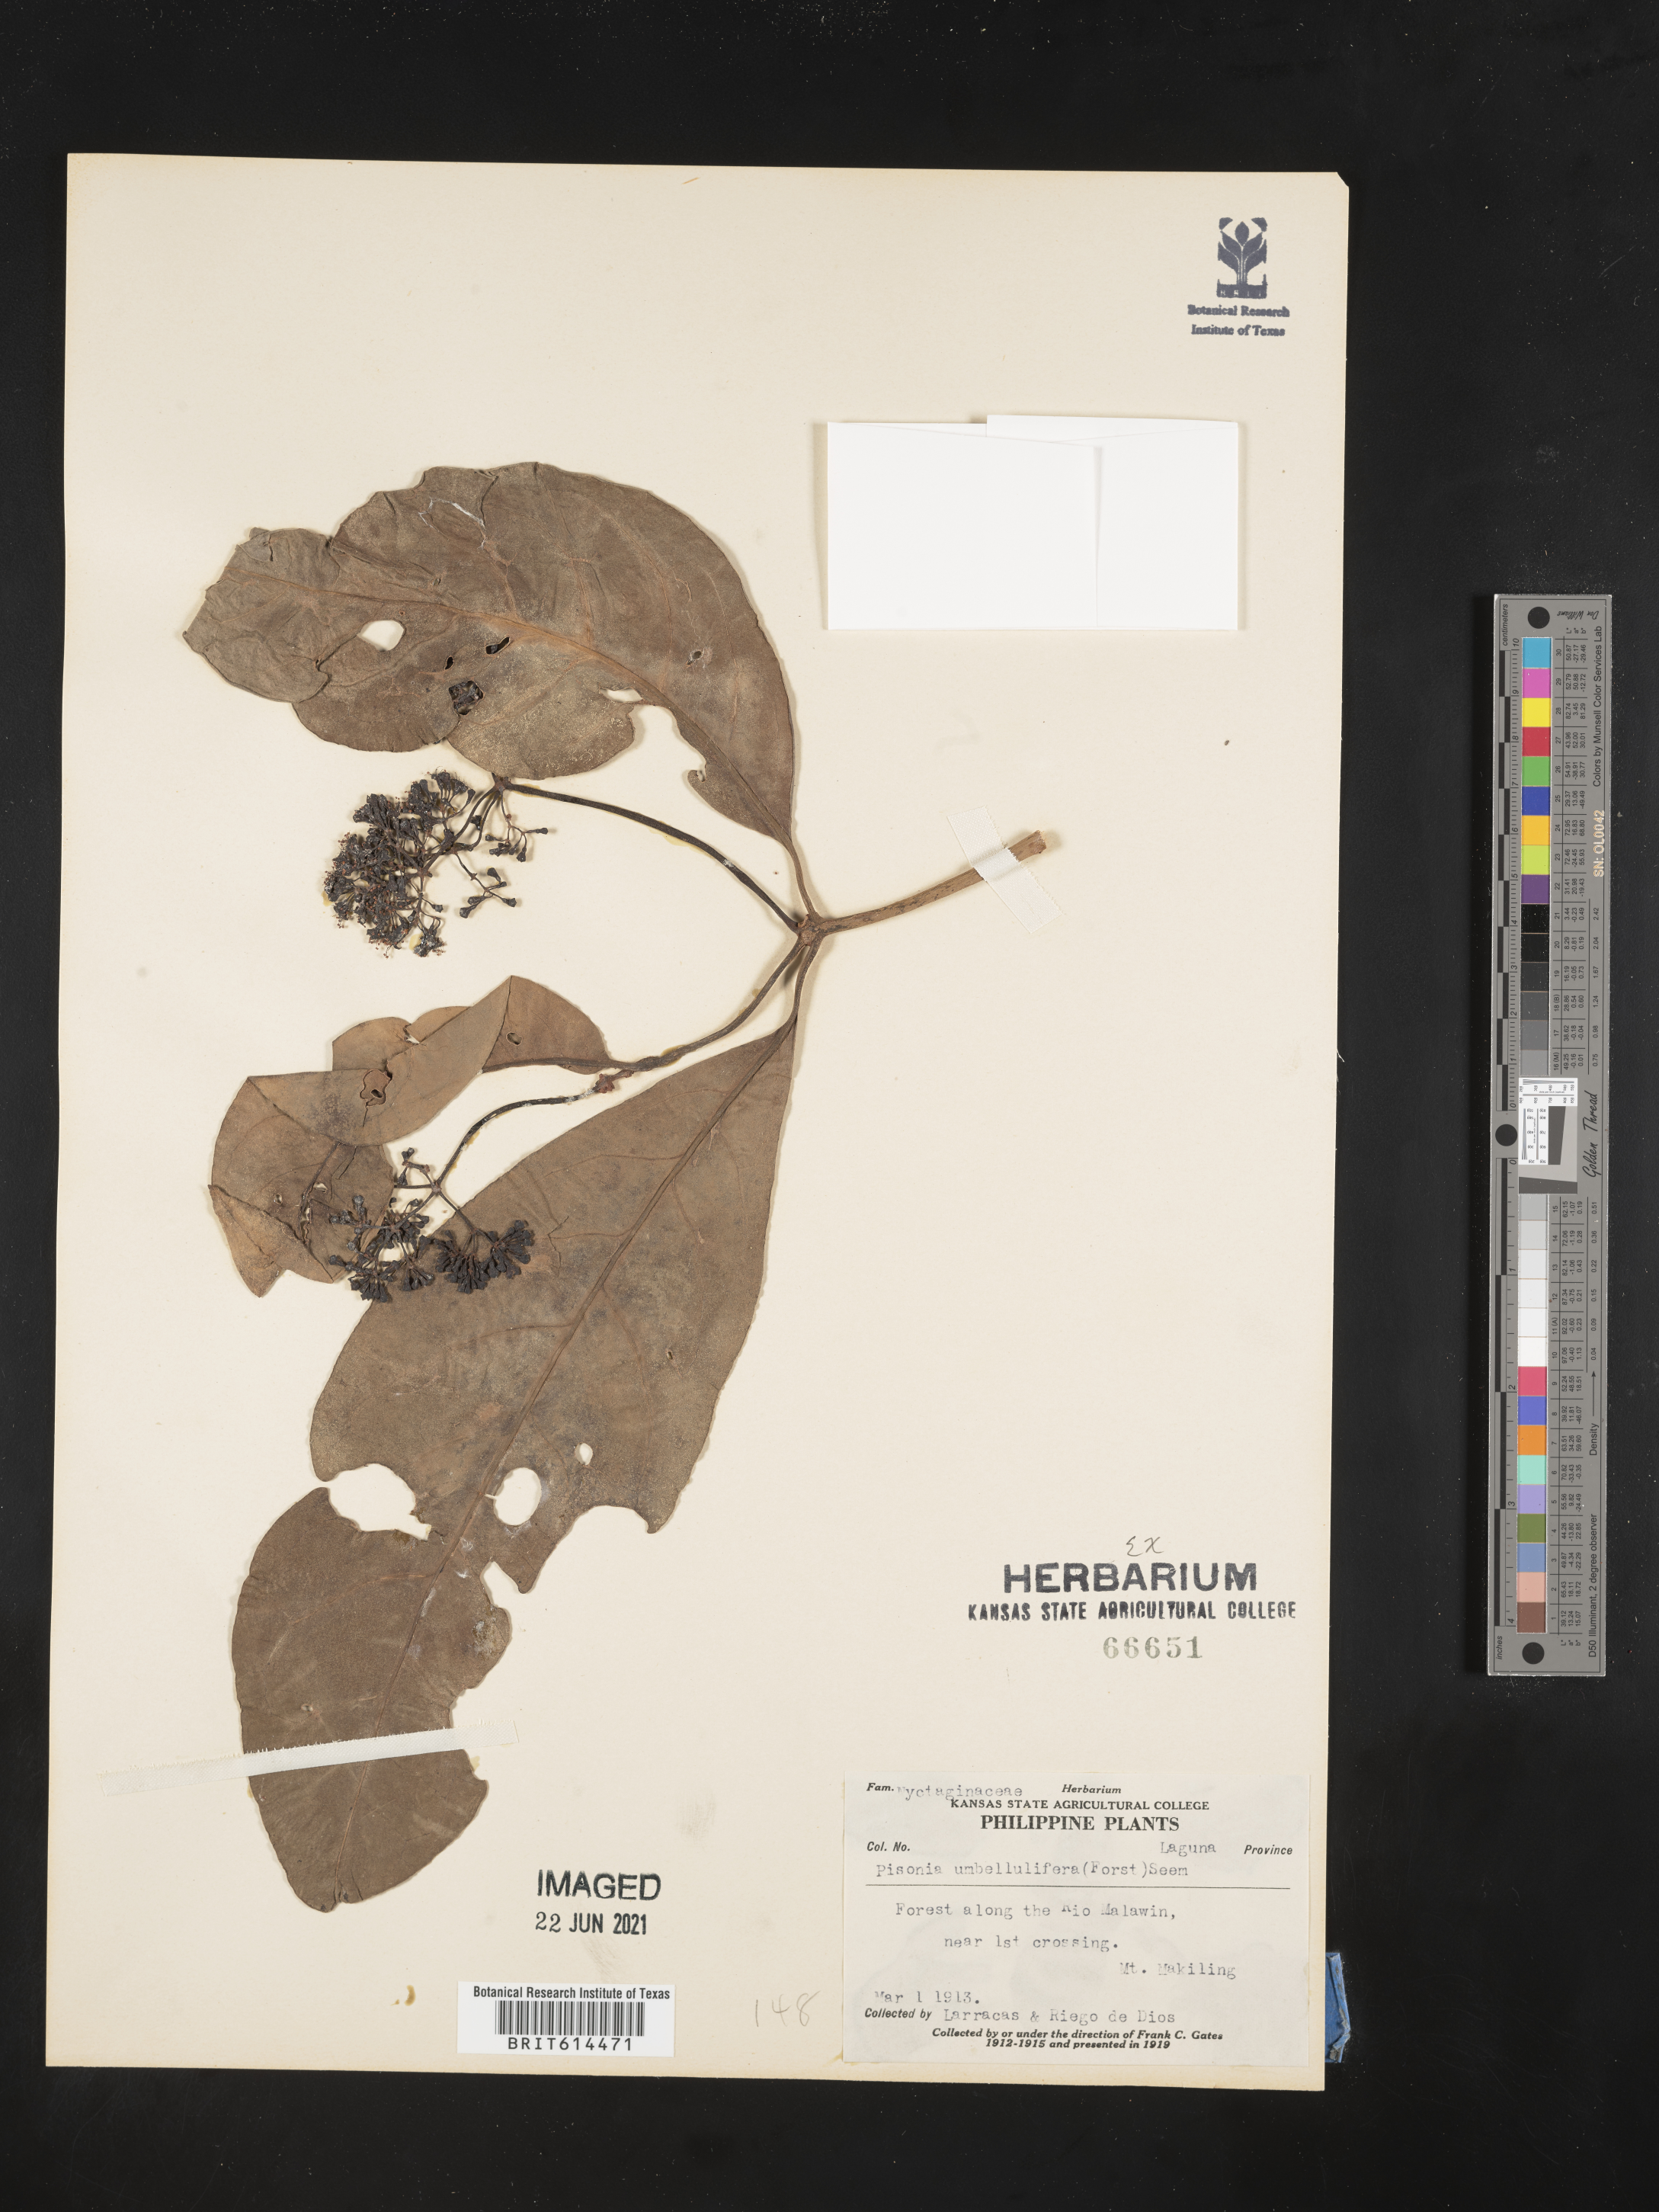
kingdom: Plantae
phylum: Tracheophyta
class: Magnoliopsida
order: Caryophyllales
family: Nyctaginaceae
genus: Ceodes
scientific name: Ceodes umbellifera
